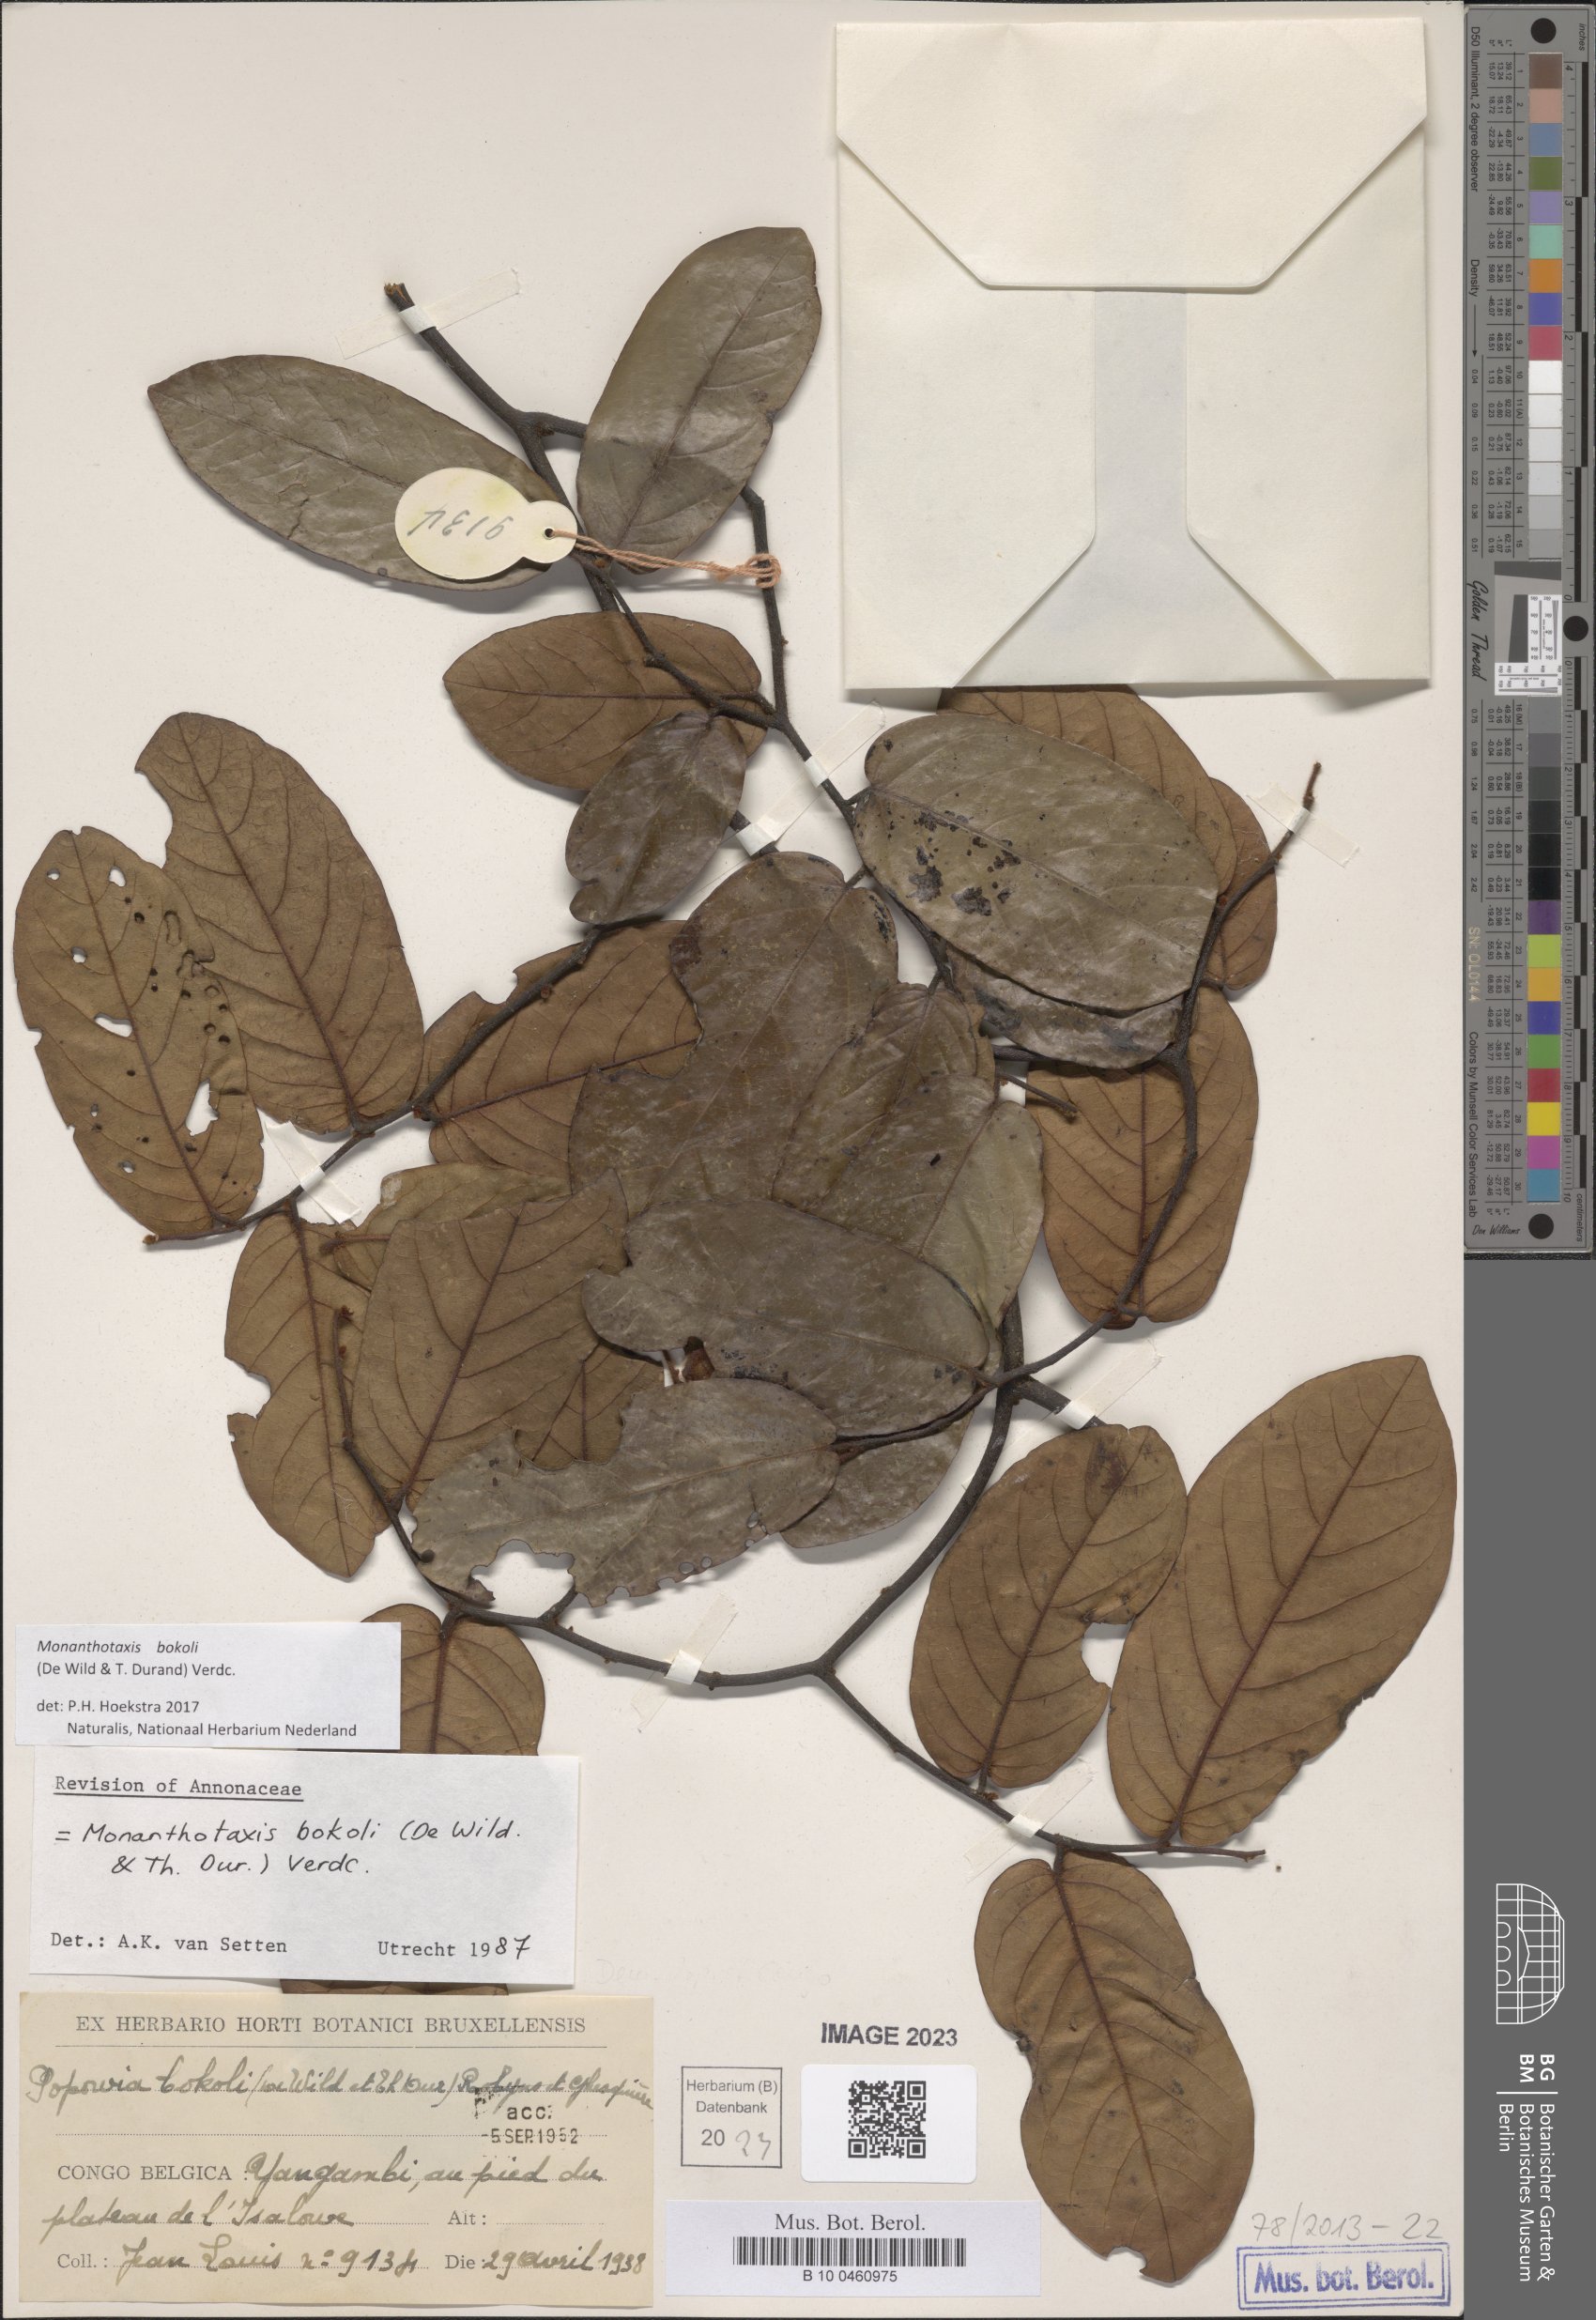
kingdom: Plantae
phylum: Tracheophyta
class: Magnoliopsida
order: Magnoliales
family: Annonaceae
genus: Monanthotaxis
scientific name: Monanthotaxis bokoli
